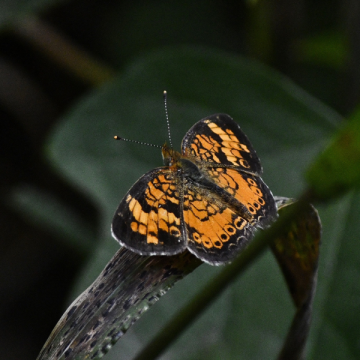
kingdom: Animalia
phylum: Arthropoda
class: Insecta
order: Lepidoptera
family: Nymphalidae
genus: Phyciodes
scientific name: Phyciodes tharos
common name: Pearl Crescent
